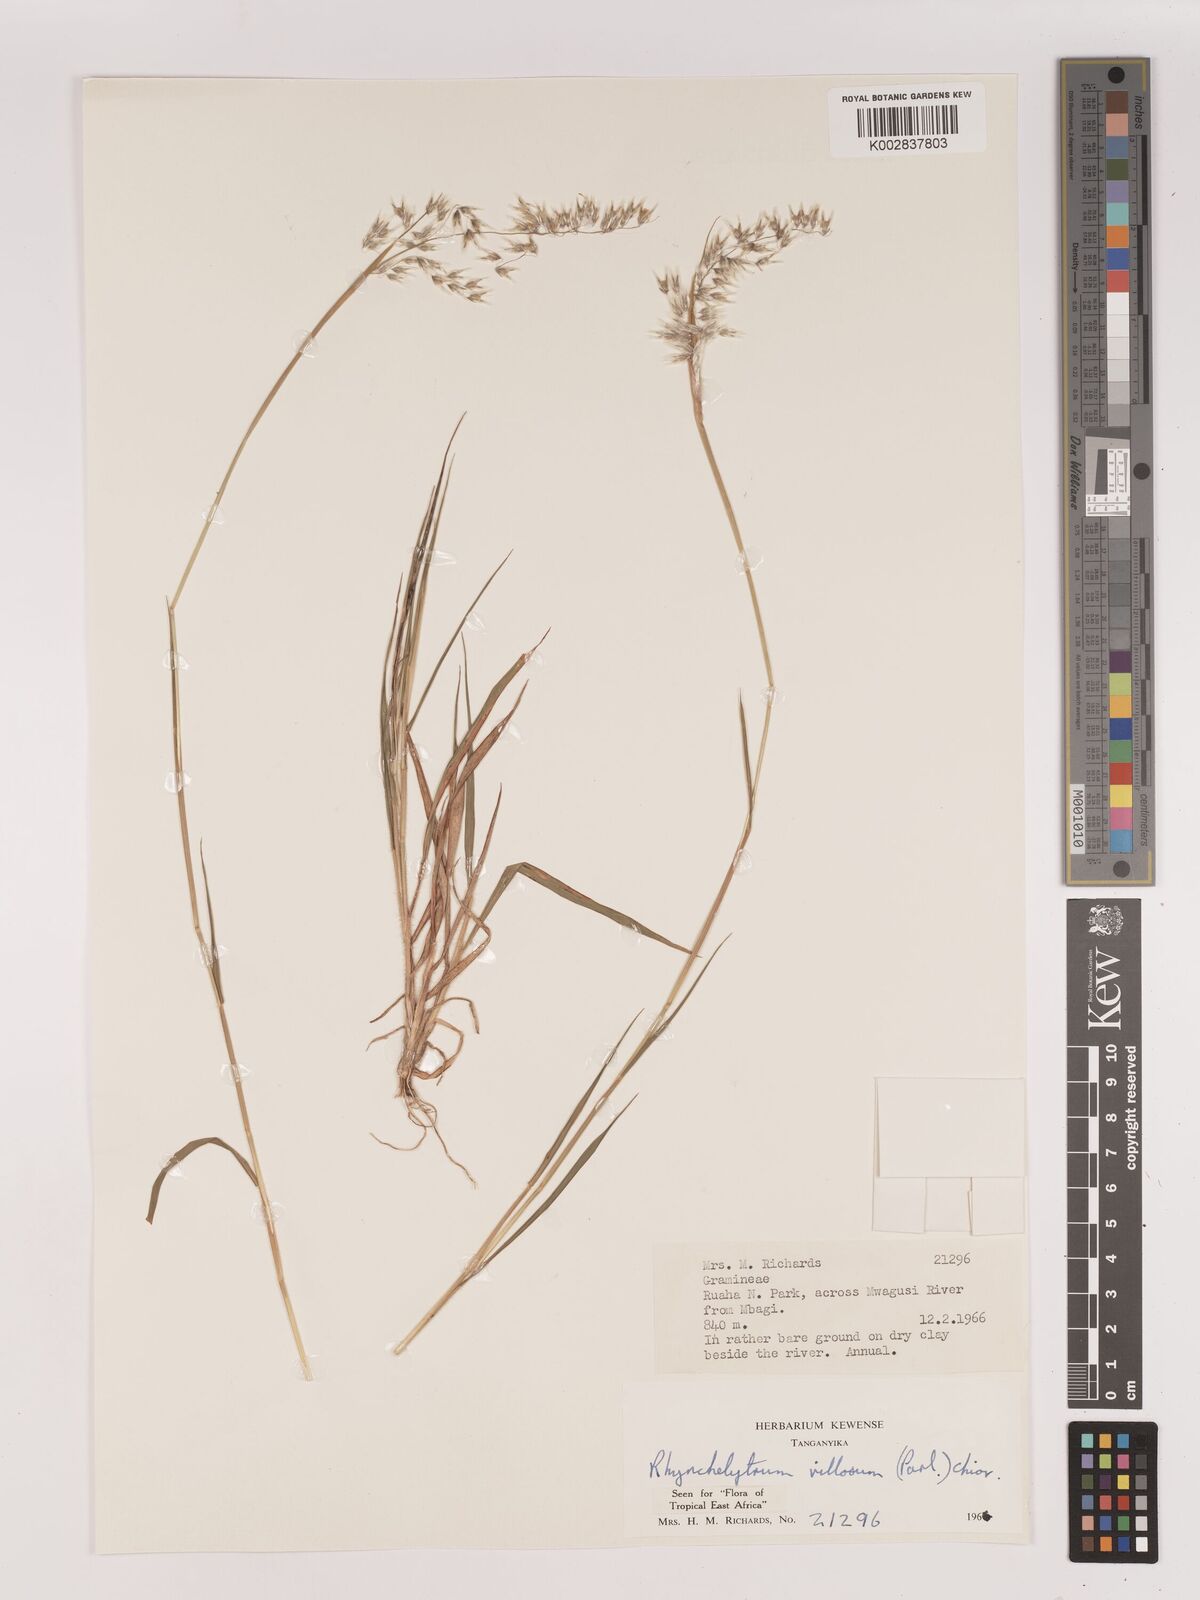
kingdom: Plantae
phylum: Tracheophyta
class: Liliopsida
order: Poales
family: Poaceae
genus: Melinis
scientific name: Melinis repens
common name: Rose natal grass
